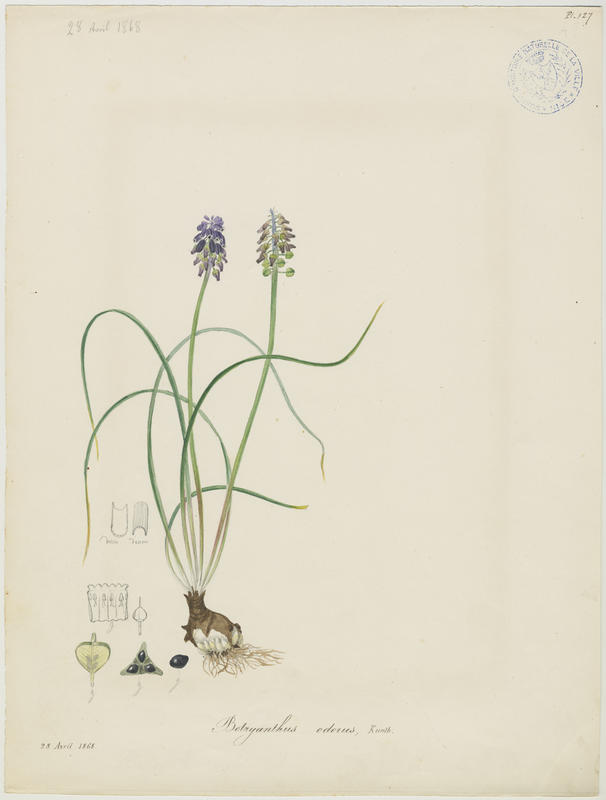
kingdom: Plantae
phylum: Tracheophyta
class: Liliopsida
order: Asparagales
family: Asparagaceae
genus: Muscari
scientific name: Muscari neglectum
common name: Grape-hyacinth
